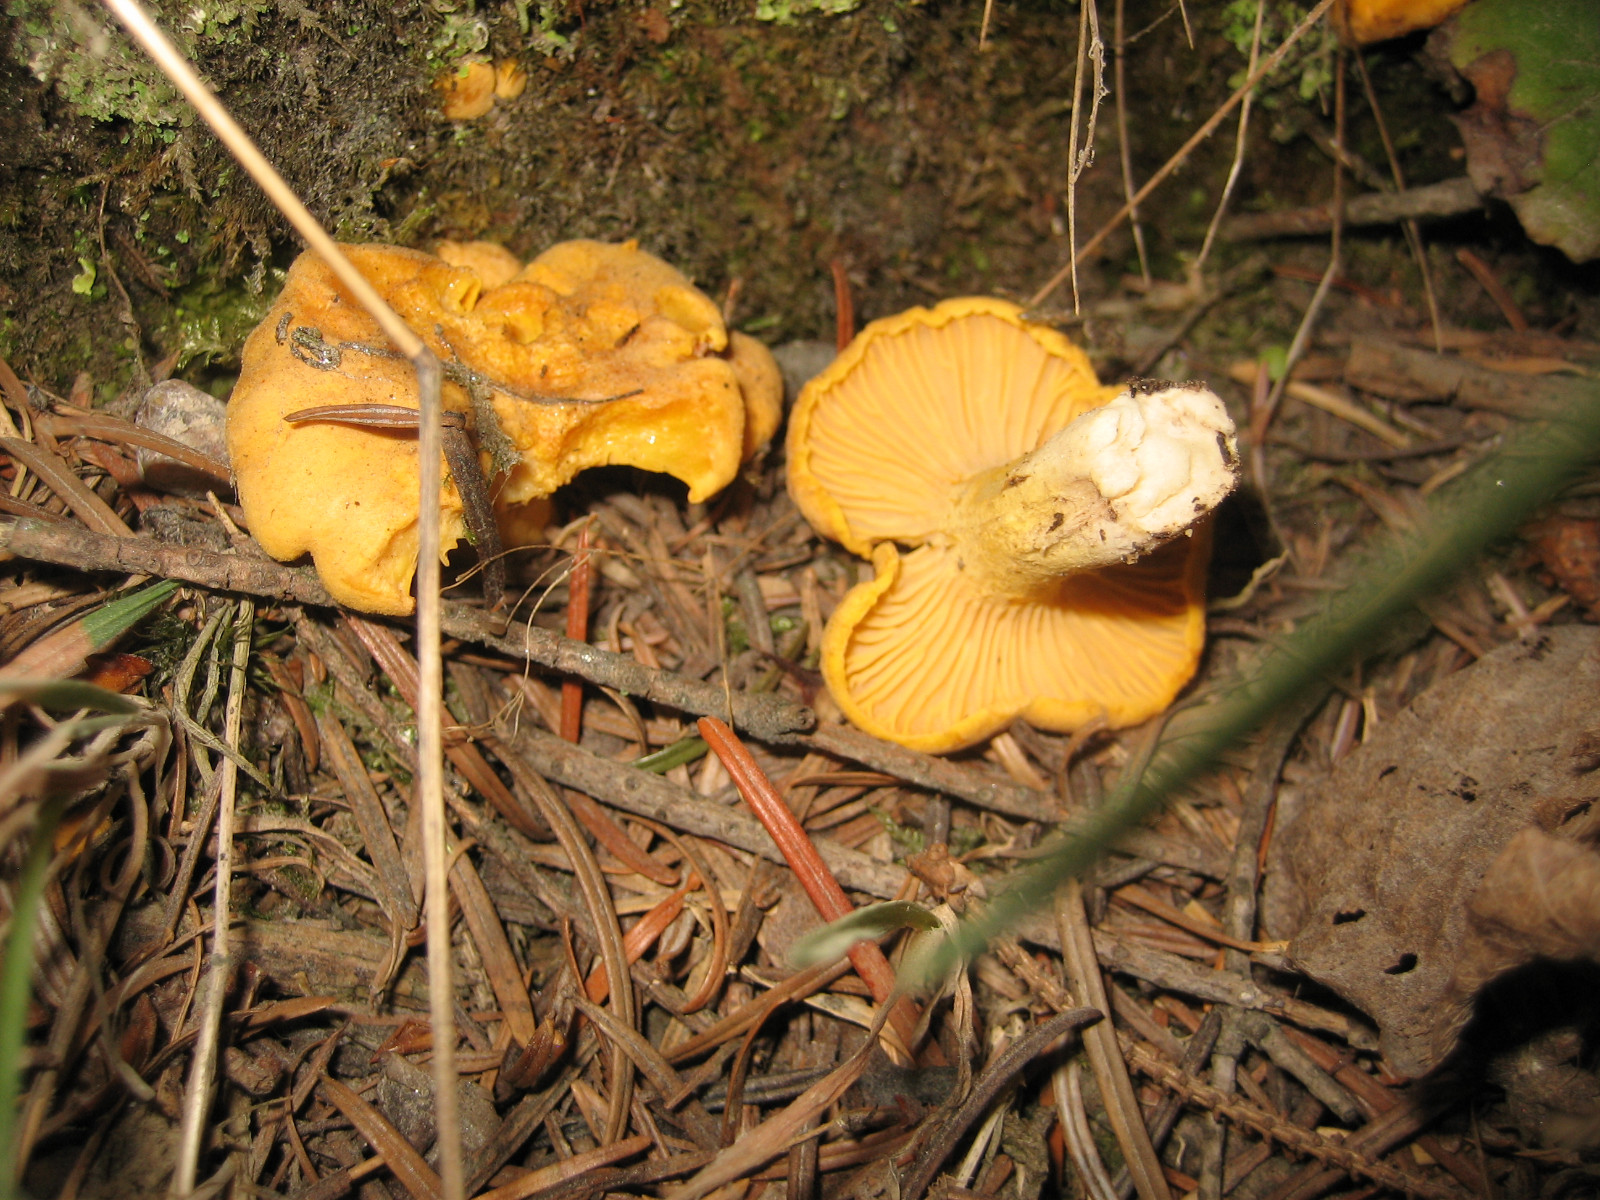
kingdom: Fungi
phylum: Basidiomycota
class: Agaricomycetes
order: Cantharellales
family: Hydnaceae
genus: Cantharellus
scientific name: Cantharellus cibarius
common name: almindelig kantarel
